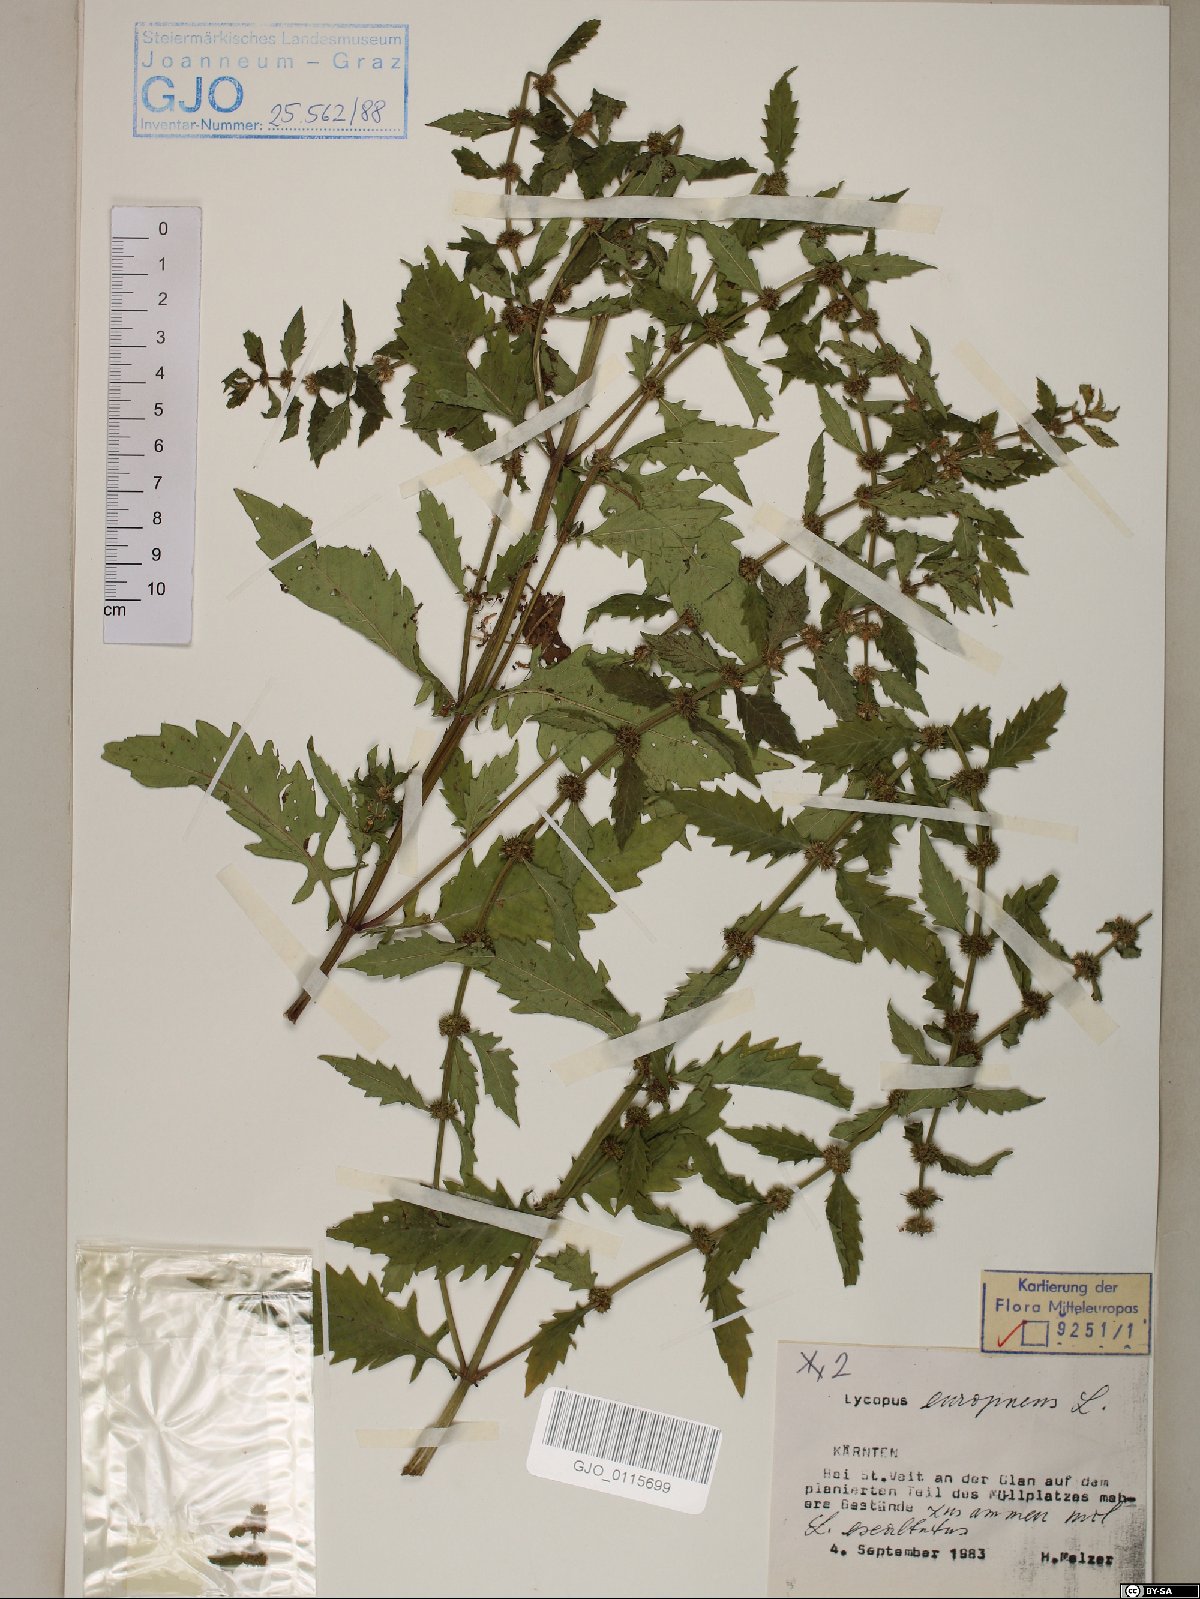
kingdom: Plantae
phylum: Tracheophyta
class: Magnoliopsida
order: Lamiales
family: Lamiaceae
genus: Lycopus
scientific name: Lycopus europaeus
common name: European bugleweed
